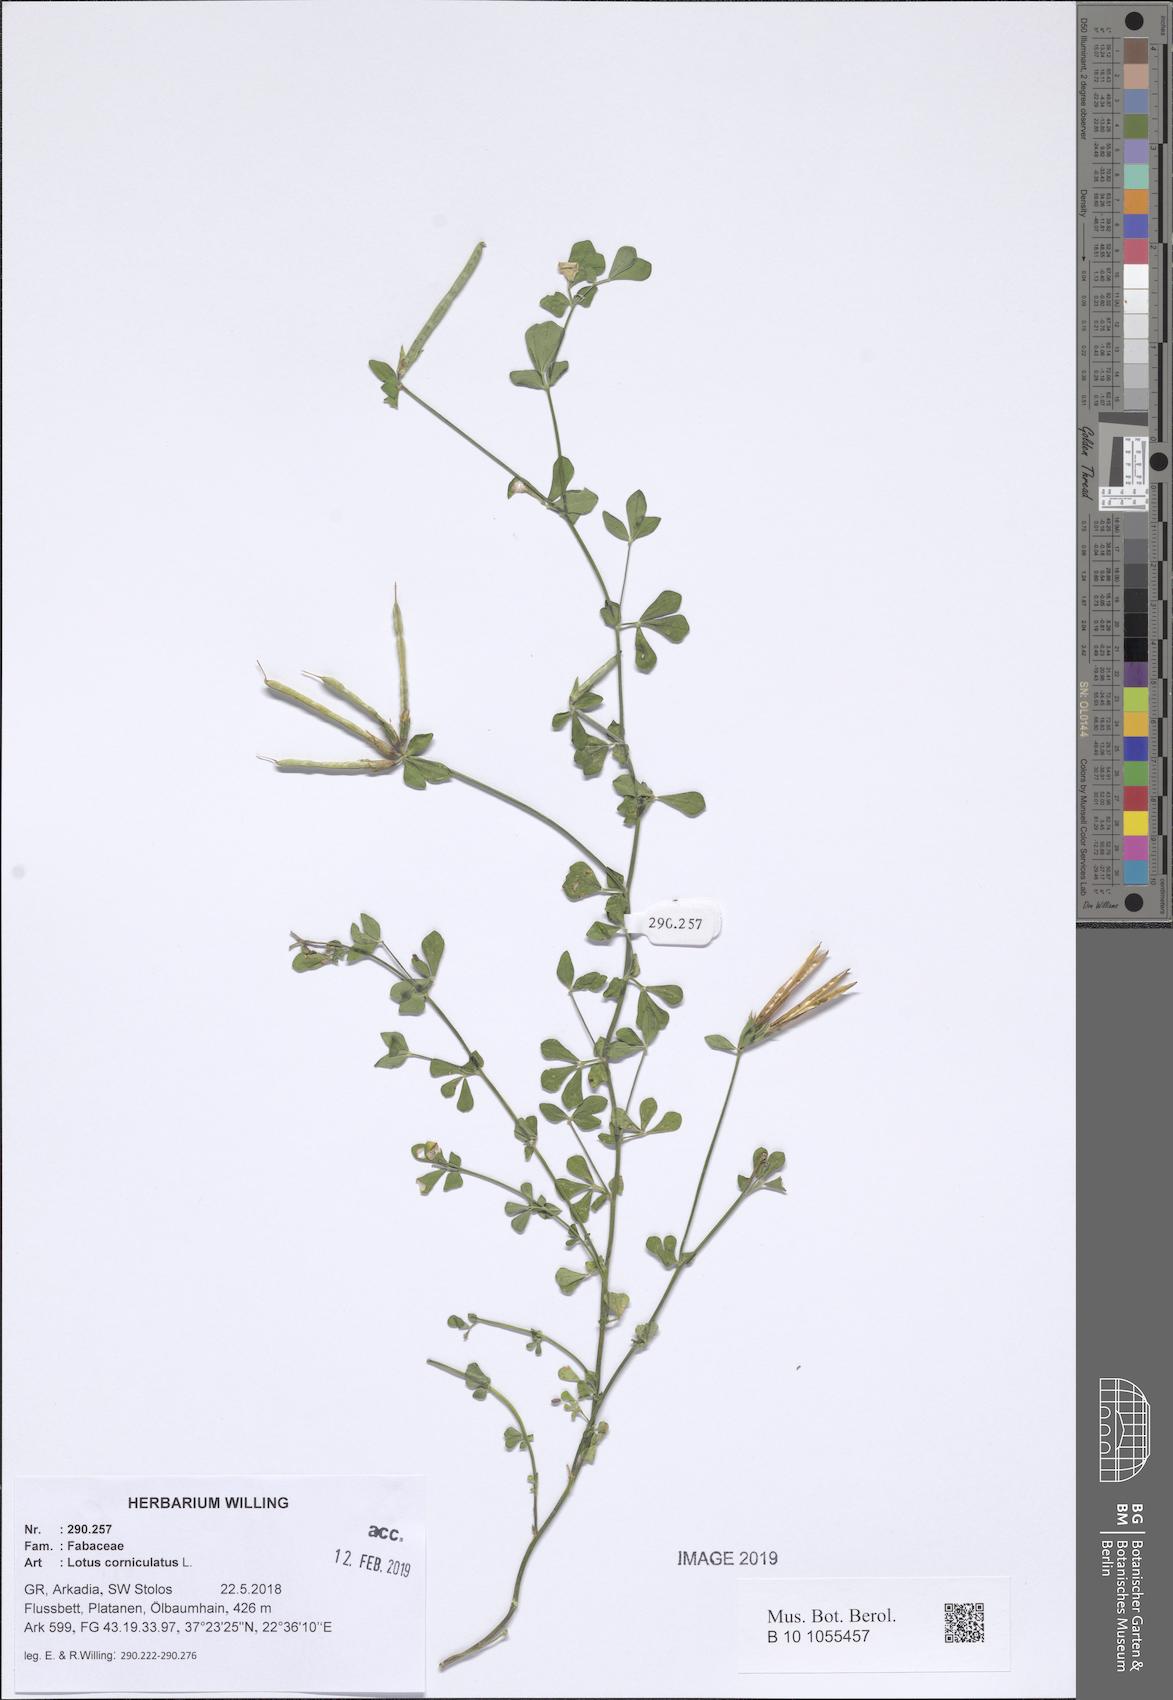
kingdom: Plantae
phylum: Tracheophyta
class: Magnoliopsida
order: Fabales
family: Fabaceae
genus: Lotus
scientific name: Lotus corniculatus
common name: Common bird's-foot-trefoil
